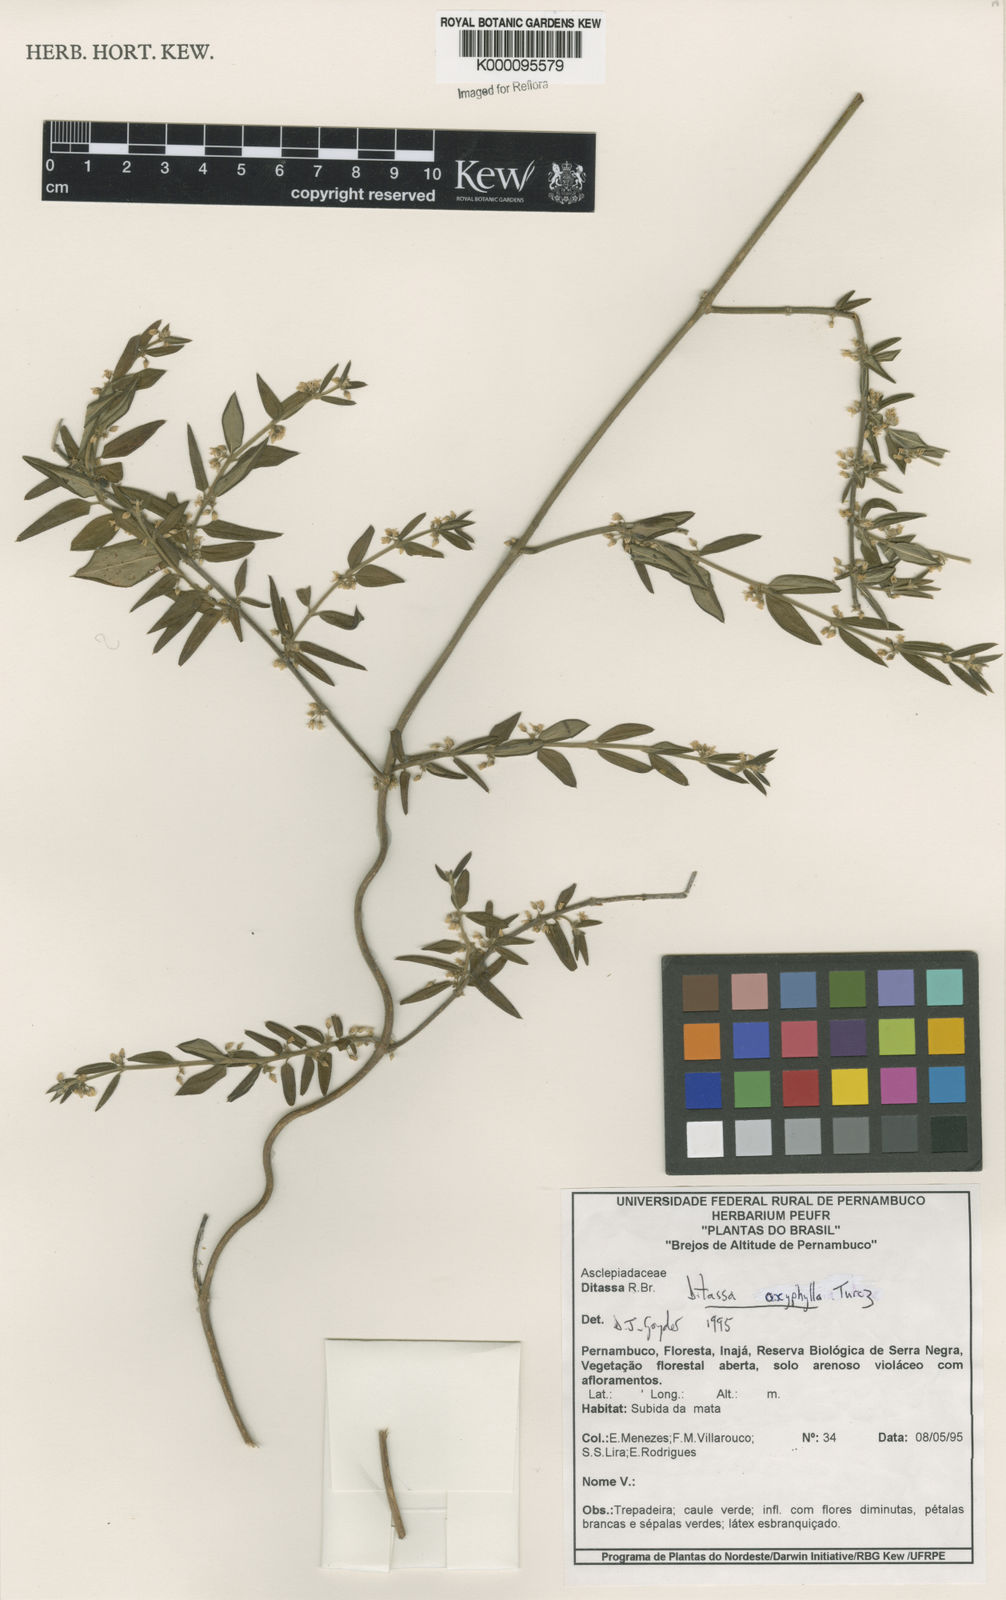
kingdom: Plantae
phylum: Tracheophyta
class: Magnoliopsida
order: Gentianales
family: Apocynaceae
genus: Ditassa
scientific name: Ditassa oxyphylla
